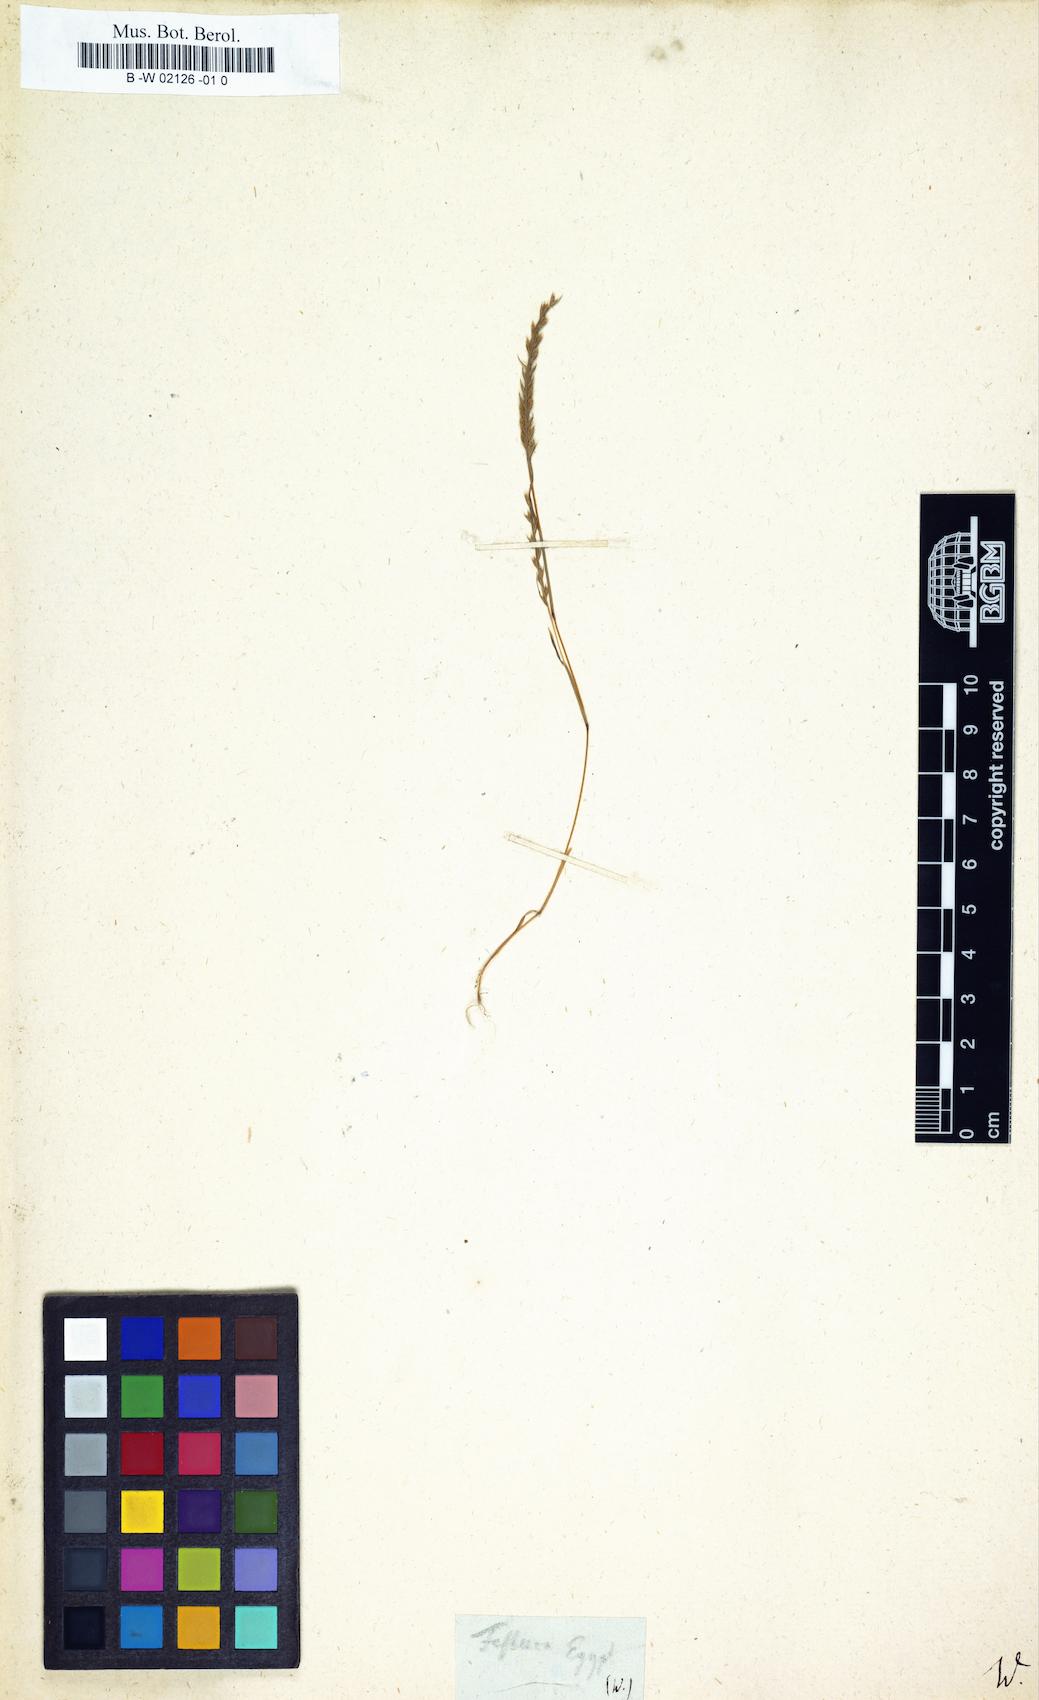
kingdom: Plantae
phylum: Tracheophyta
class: Liliopsida
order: Poales
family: Poaceae
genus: Festuca
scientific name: Festuca
